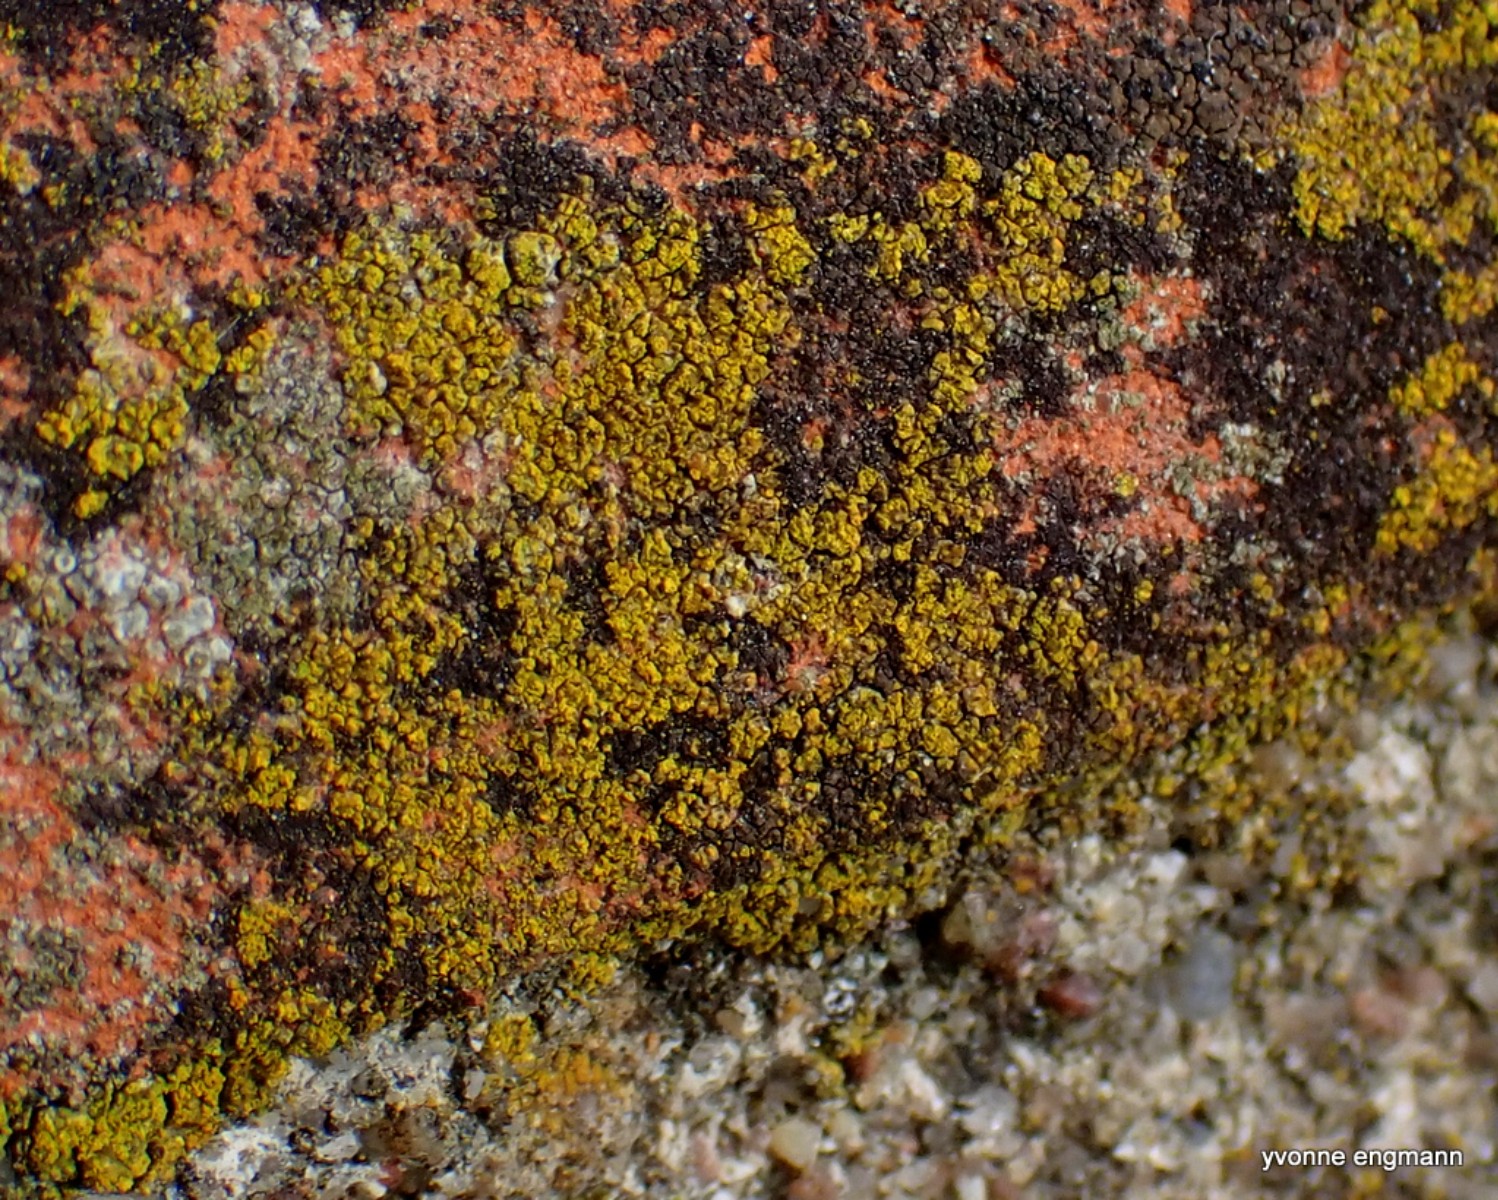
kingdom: Fungi
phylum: Ascomycota
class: Candelariomycetes
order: Candelariales
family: Candelariaceae
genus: Candelariella
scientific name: Candelariella vitellina
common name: almindelig æggeblommelav
